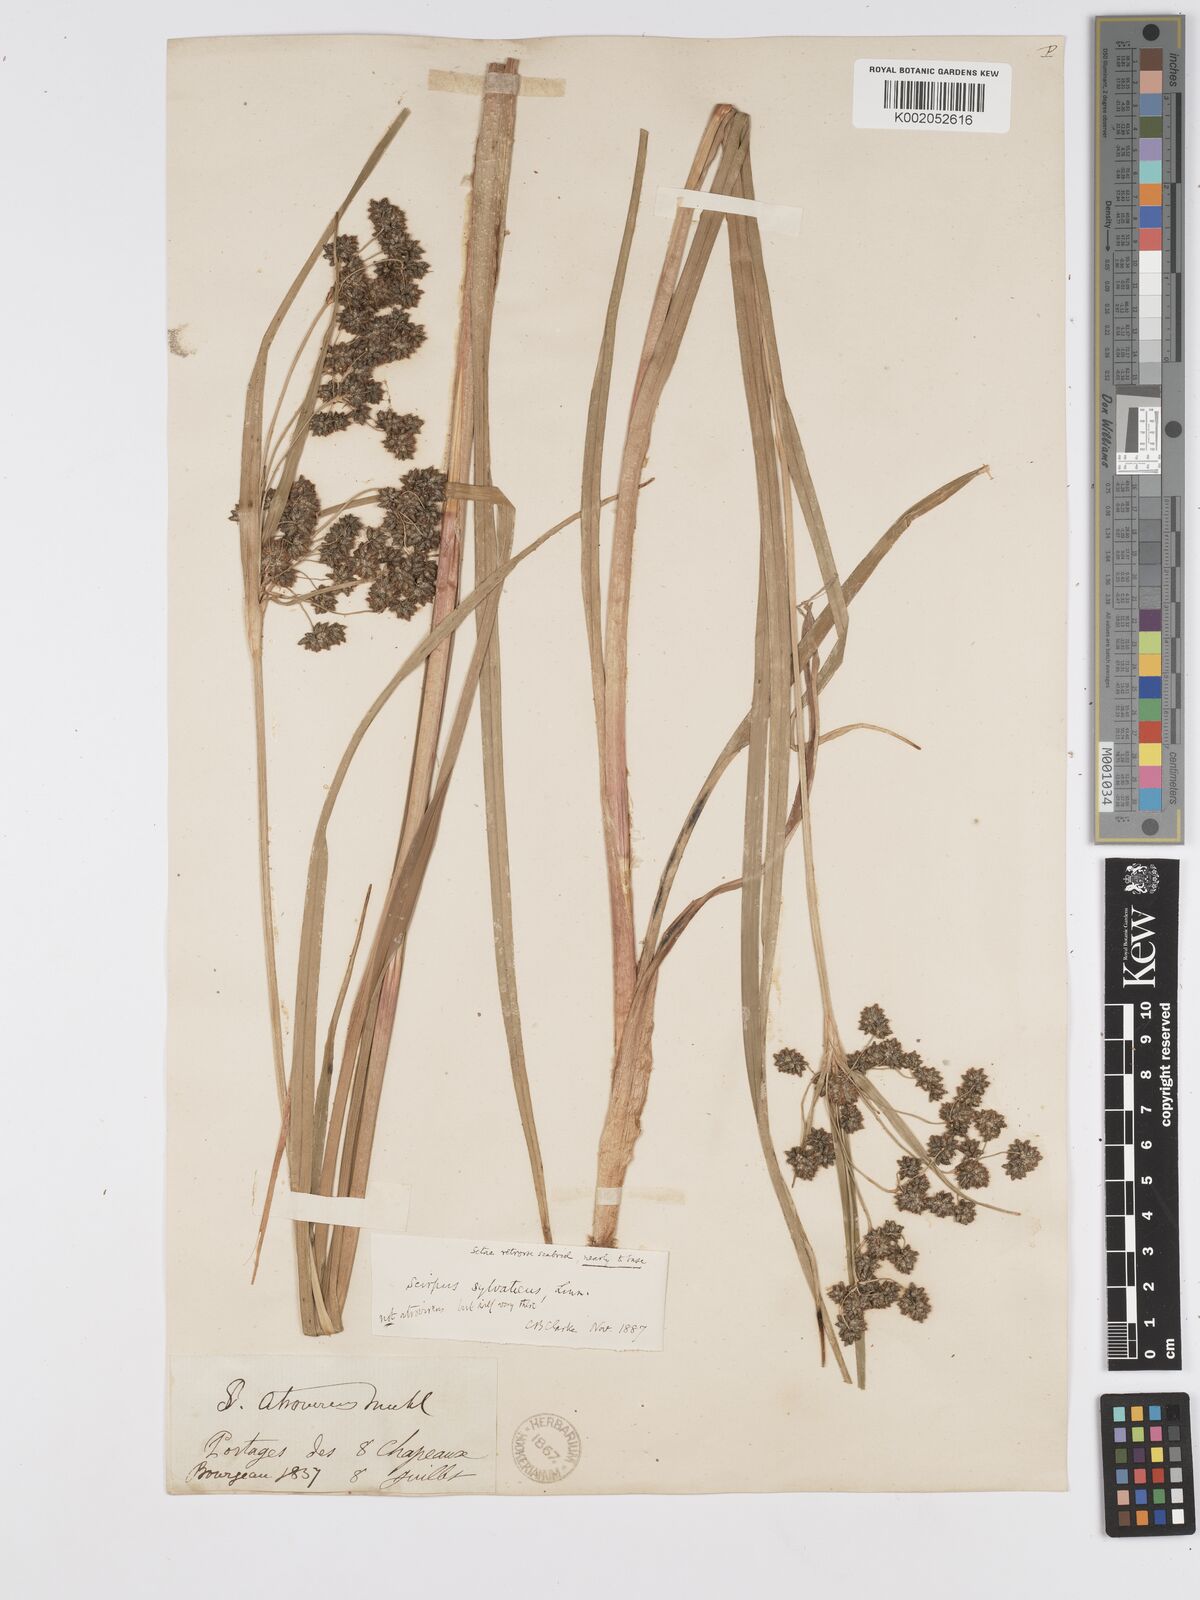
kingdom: Plantae
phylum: Tracheophyta
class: Liliopsida
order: Poales
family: Cyperaceae
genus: Scirpus
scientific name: Scirpus atrovirens
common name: Black bulrush
